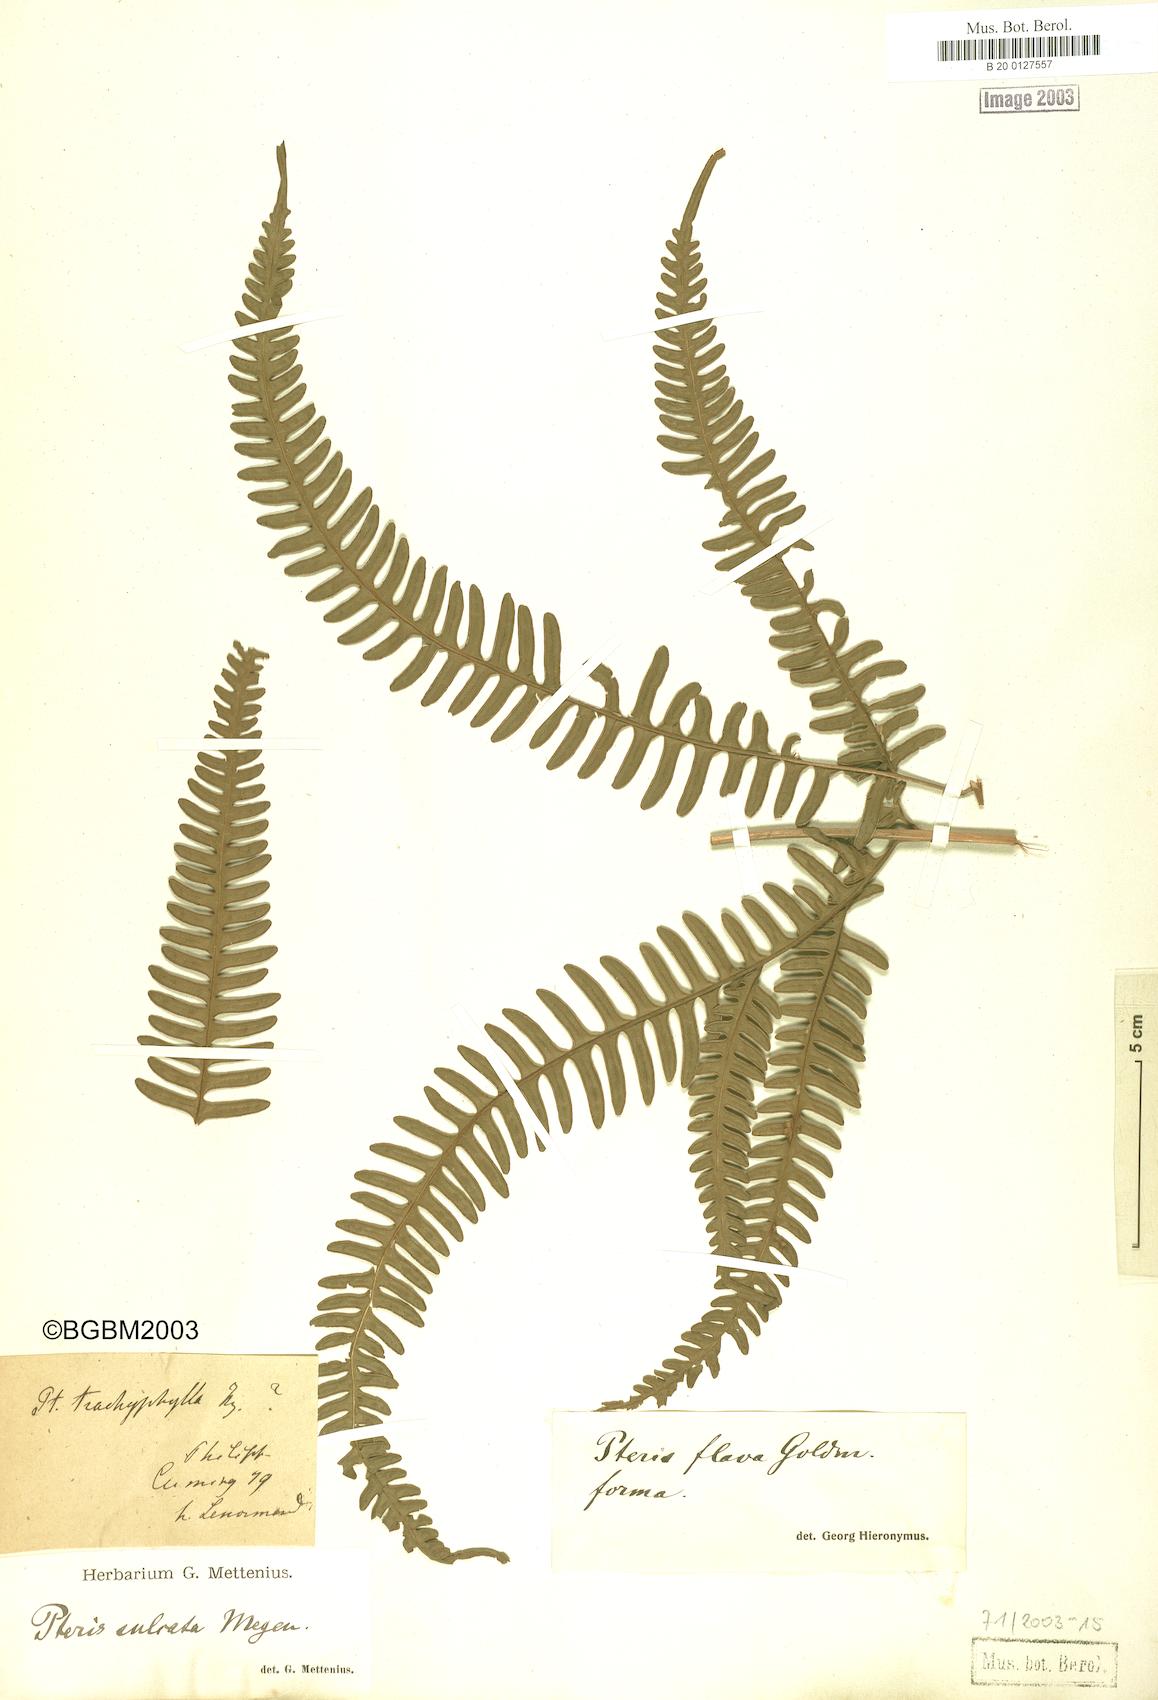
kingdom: Plantae
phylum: Tracheophyta
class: Polypodiopsida
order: Polypodiales
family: Pteridaceae
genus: Pteris
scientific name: Pteris glaucovirens
